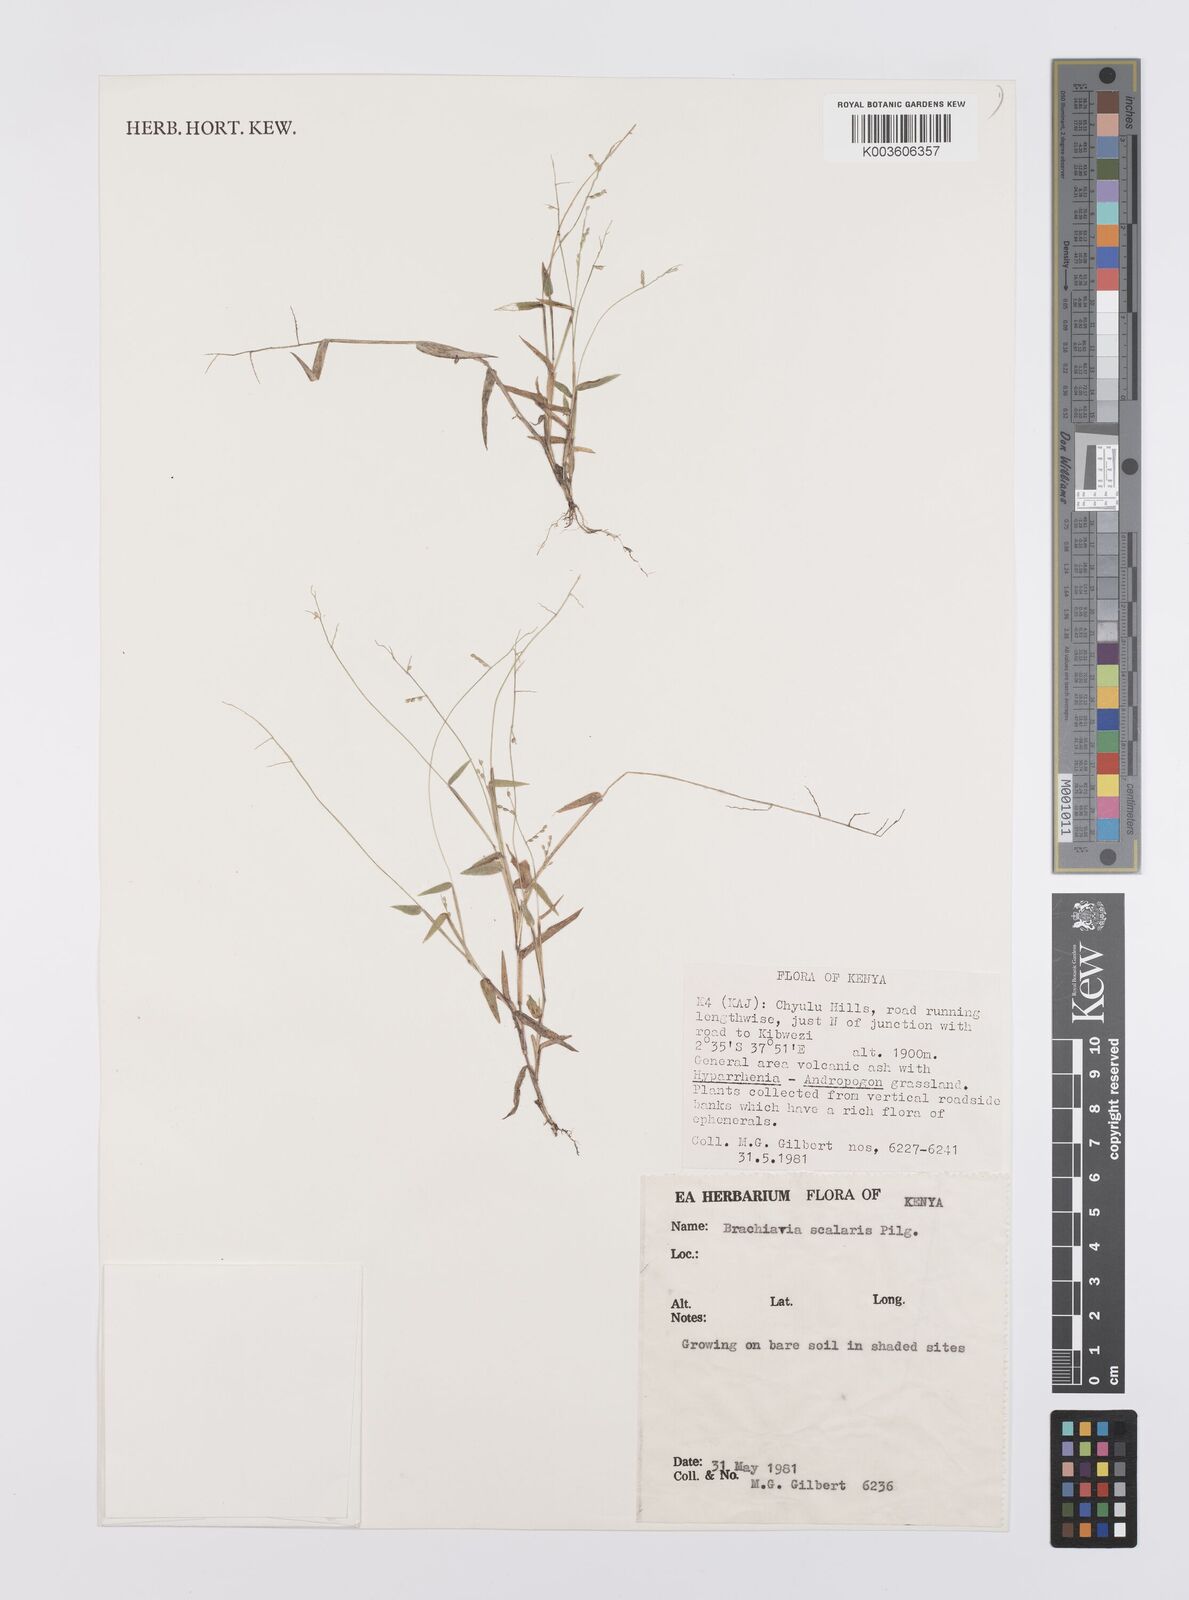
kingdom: Plantae
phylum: Tracheophyta
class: Liliopsida
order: Poales
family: Poaceae
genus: Urochloa
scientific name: Urochloa comata
